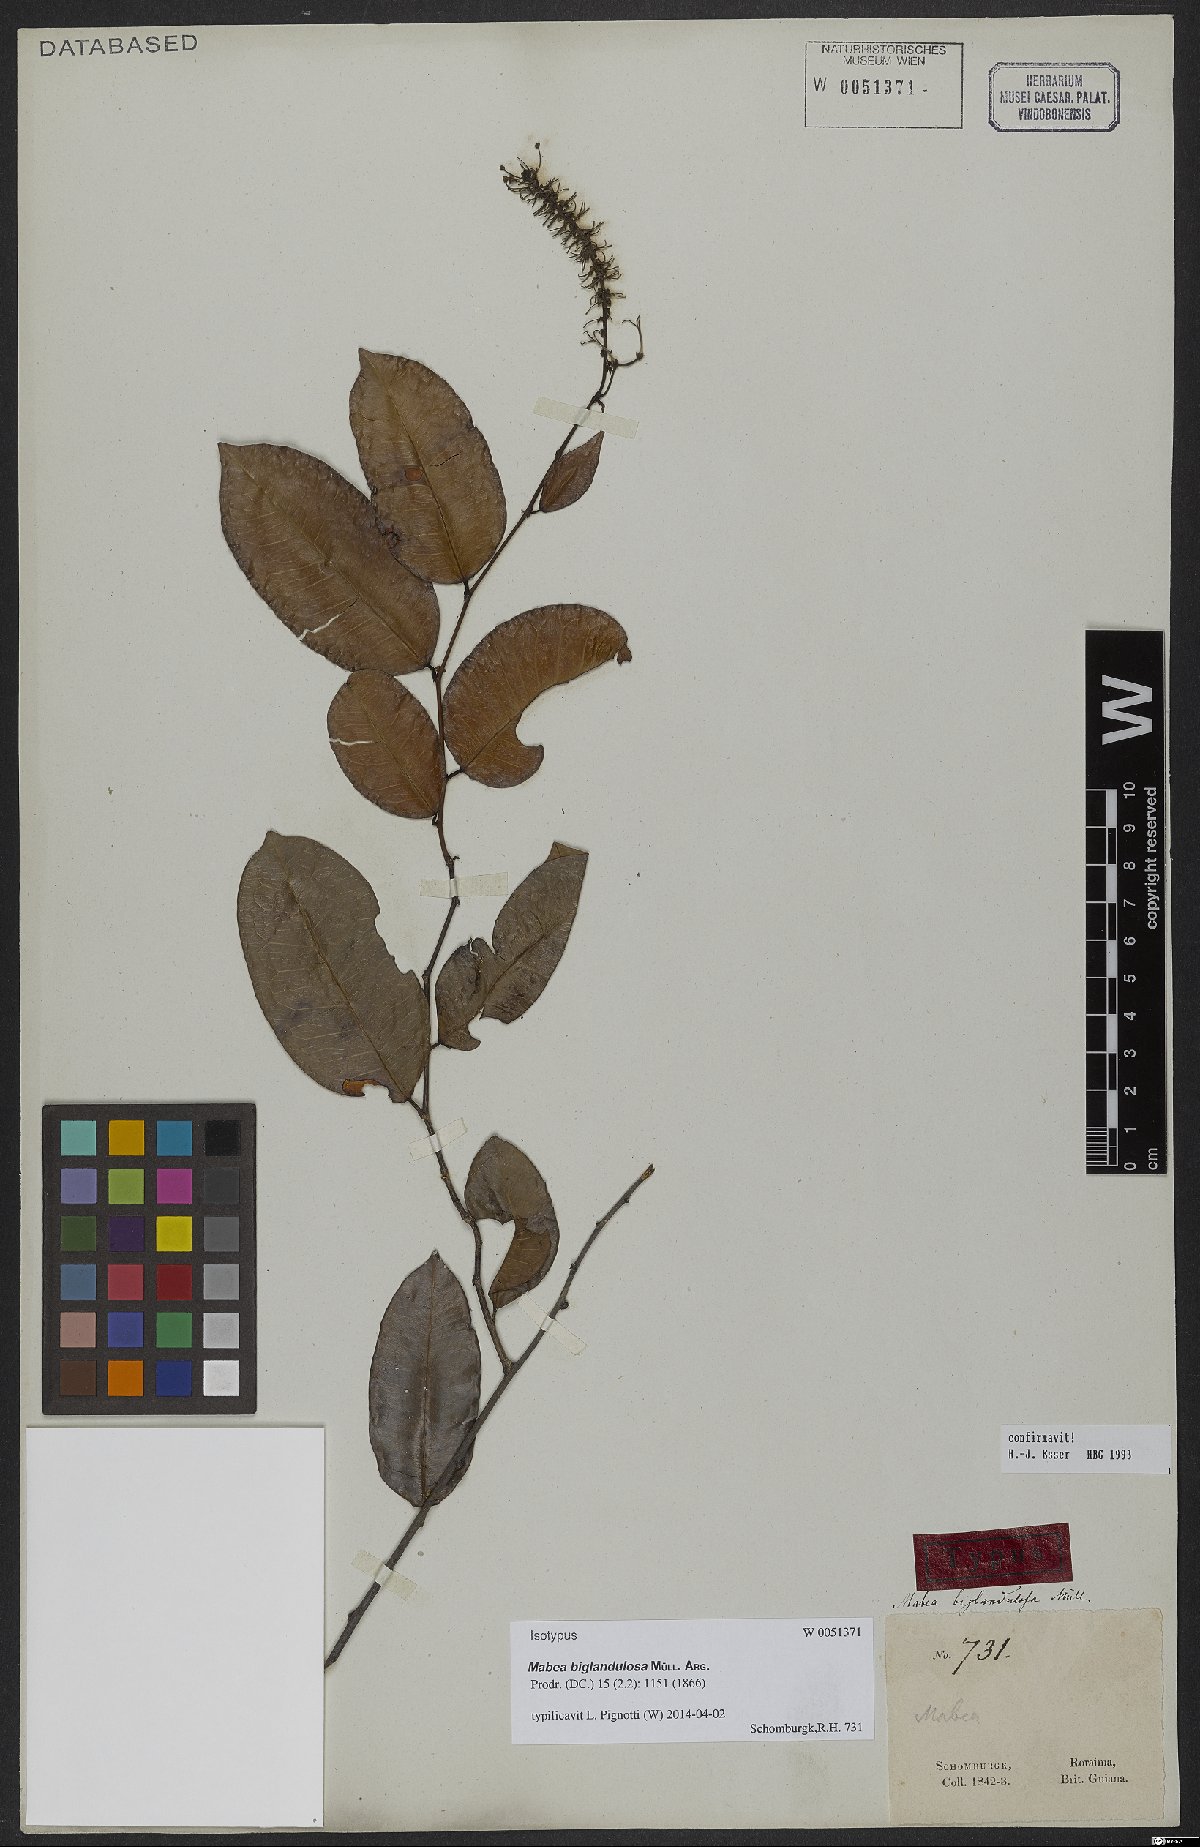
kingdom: Plantae
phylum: Tracheophyta
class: Magnoliopsida
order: Malpighiales
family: Euphorbiaceae
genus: Mabea
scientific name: Mabea biglandulosa
